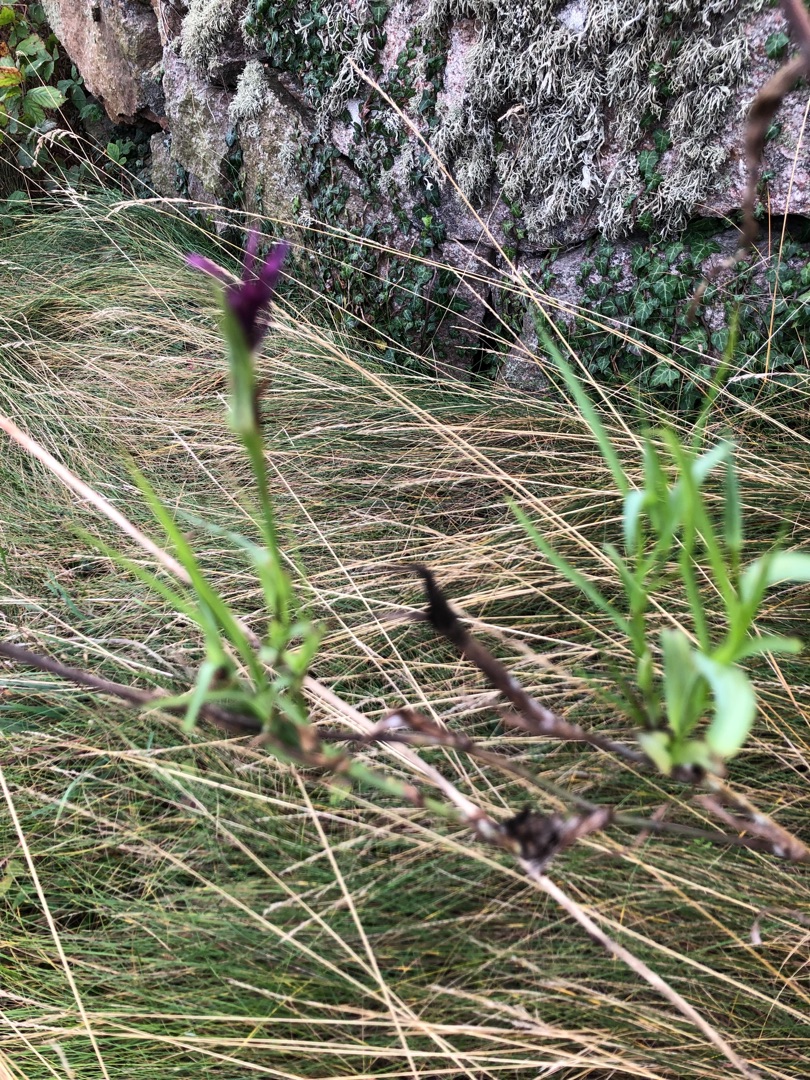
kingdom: Plantae
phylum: Tracheophyta
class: Magnoliopsida
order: Asterales
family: Asteraceae
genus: Tragopogon
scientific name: Tragopogon porrifolius
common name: Havrerod
